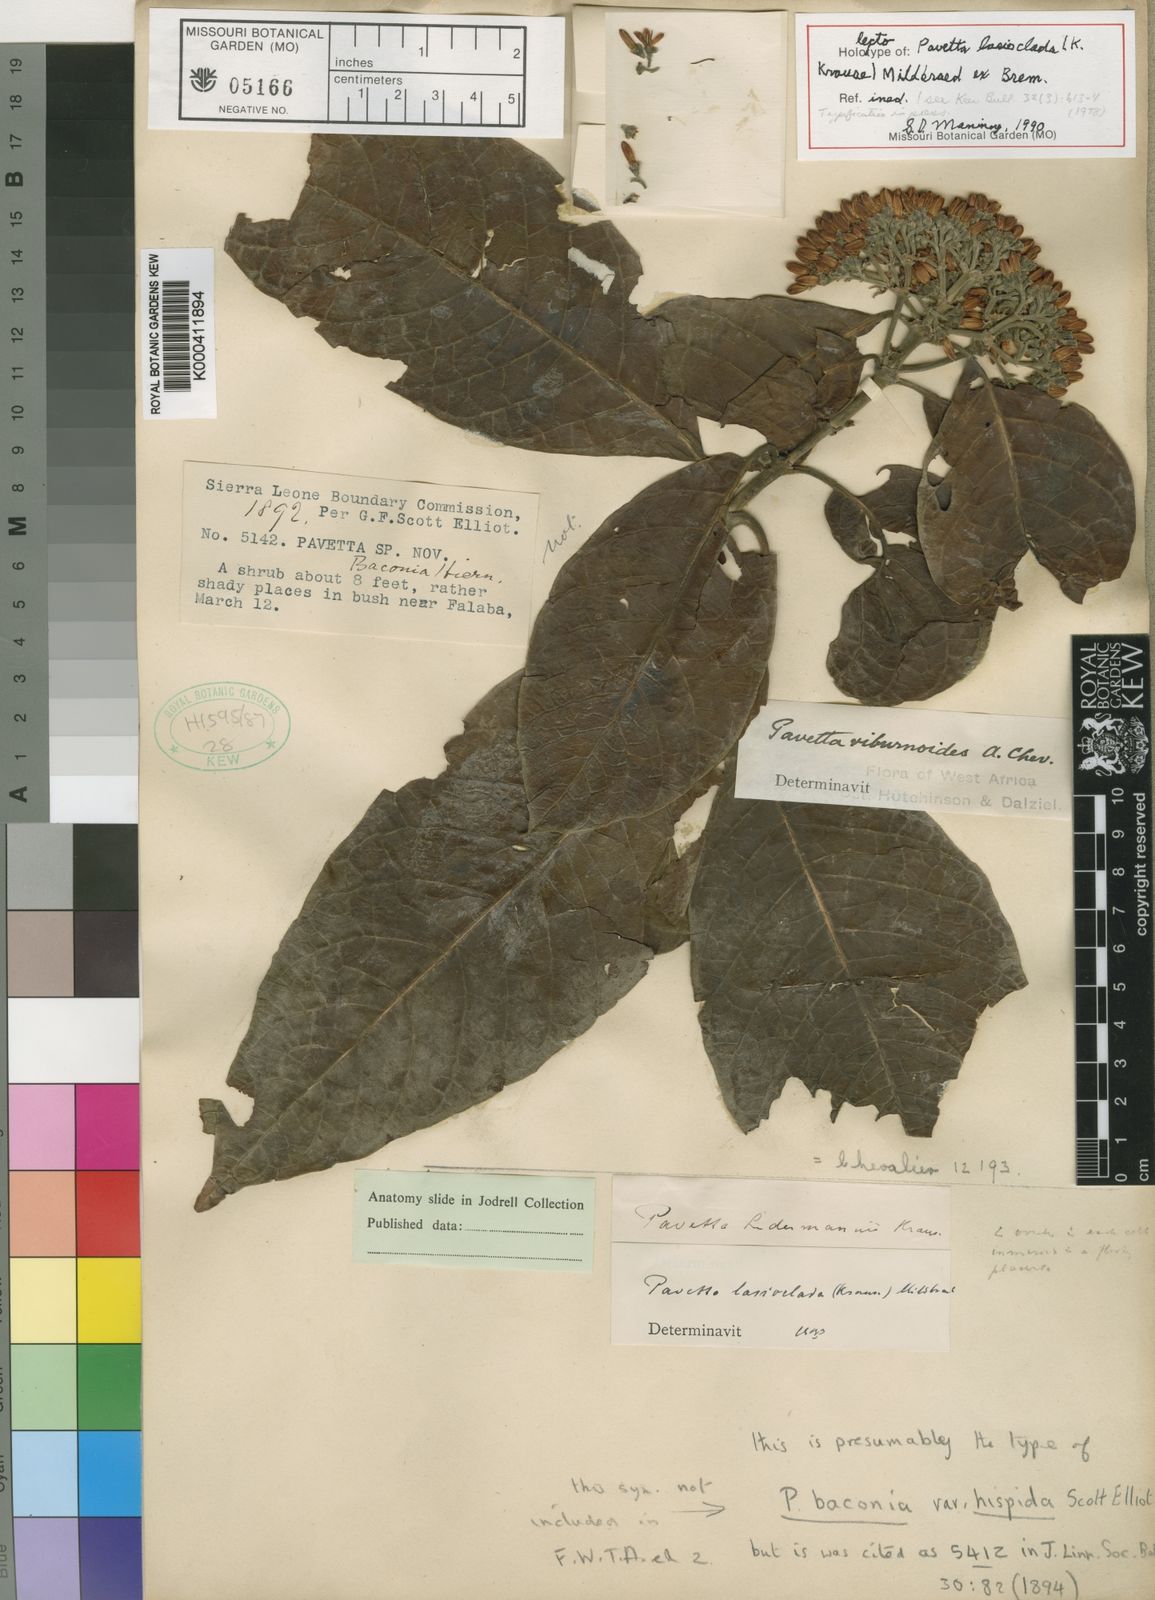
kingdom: Plantae
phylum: Tracheophyta
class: Magnoliopsida
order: Gentianales
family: Rubiaceae
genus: Pavetta
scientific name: Pavetta lasioclada
